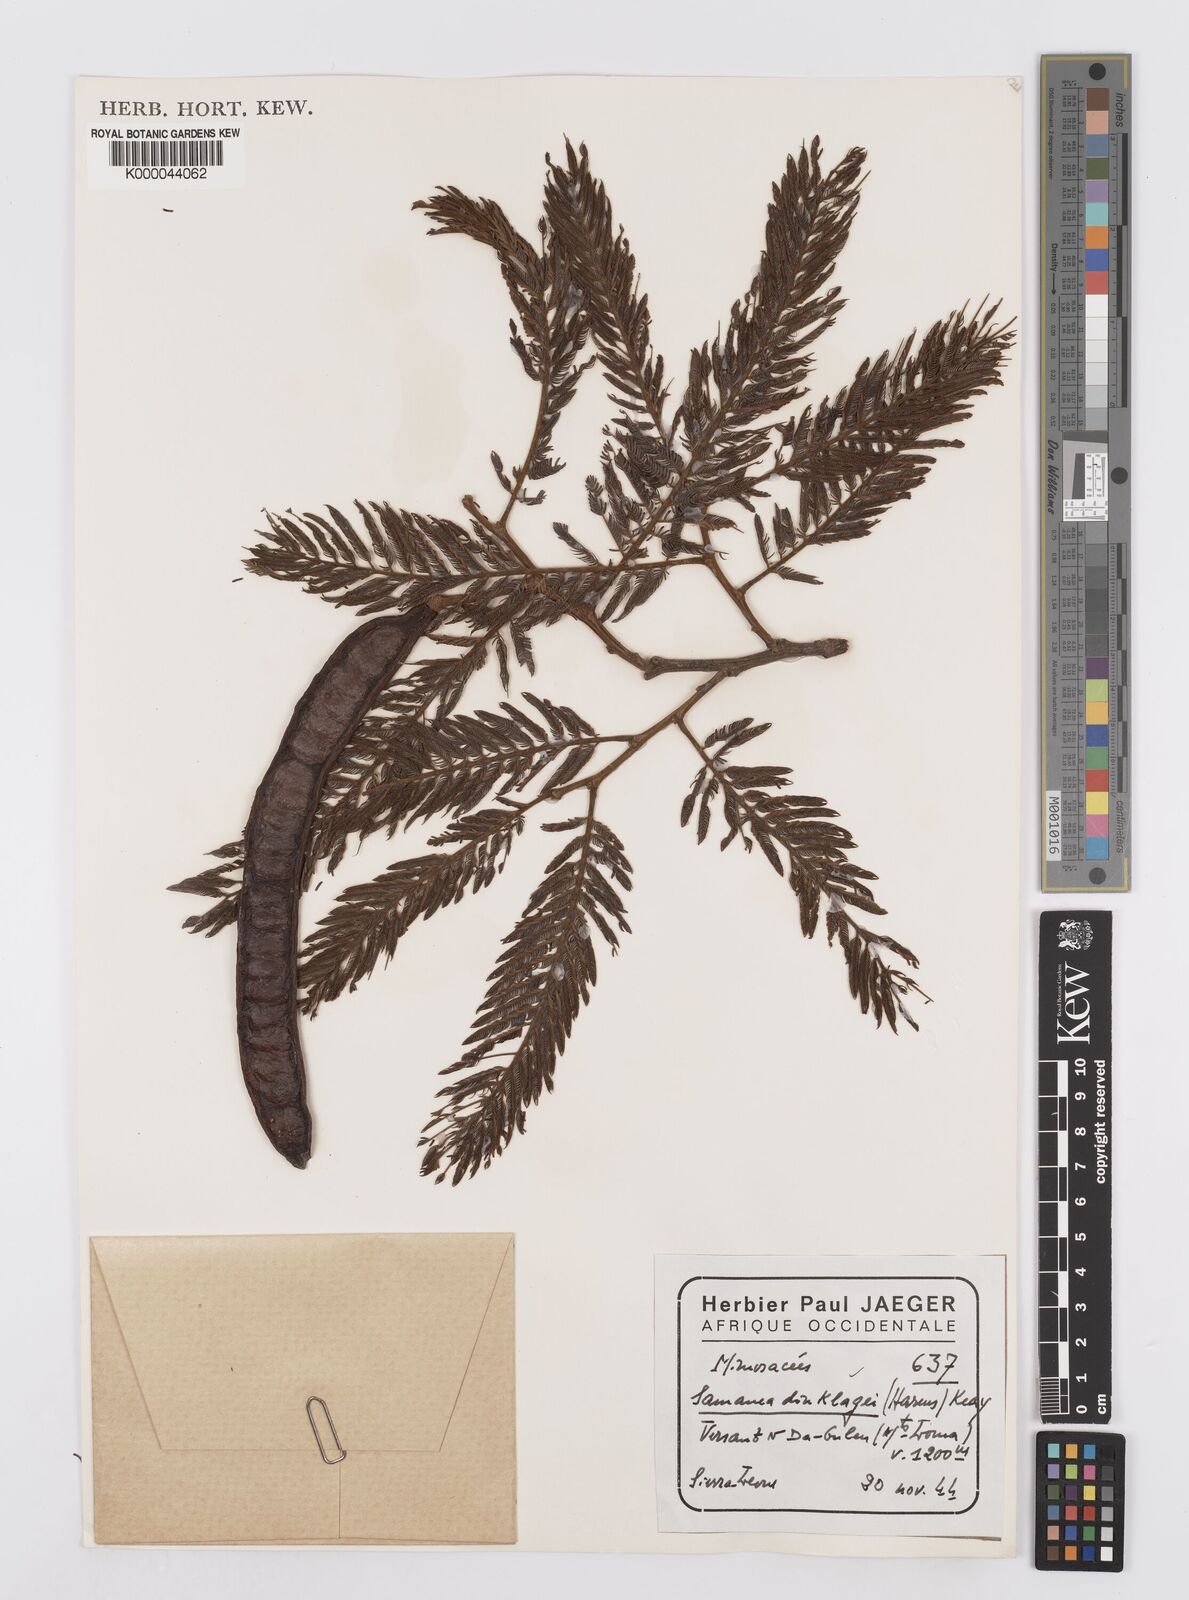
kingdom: Plantae
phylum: Tracheophyta
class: Magnoliopsida
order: Fabales
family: Fabaceae
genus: Albizia
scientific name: Albizia dinklagei
